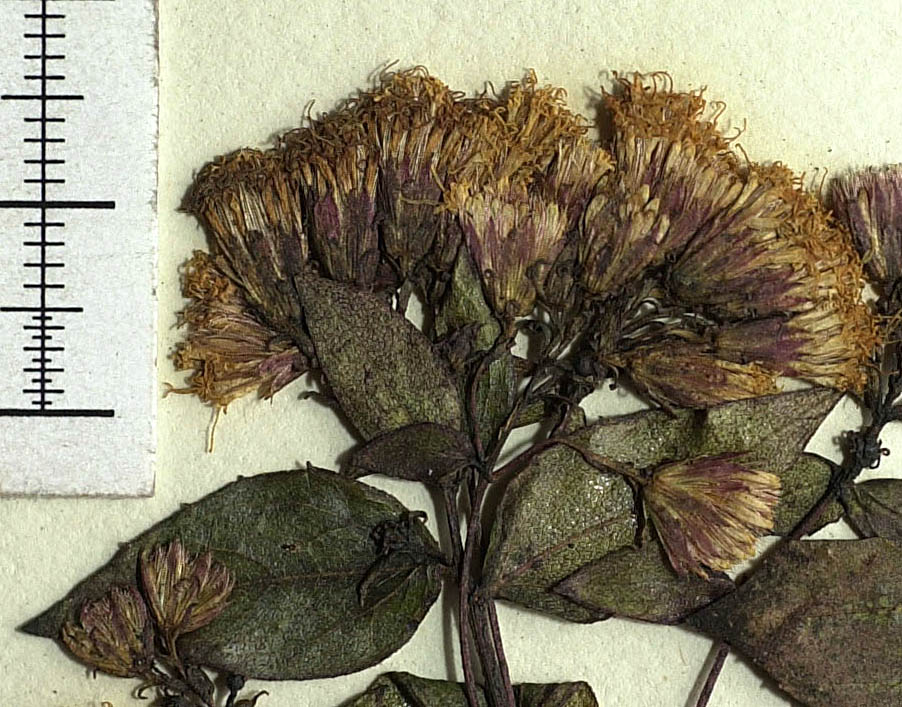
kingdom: Plantae
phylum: Tracheophyta
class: Magnoliopsida
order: Asterales
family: Asteraceae
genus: Ageratina
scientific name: Ageratina collodes
